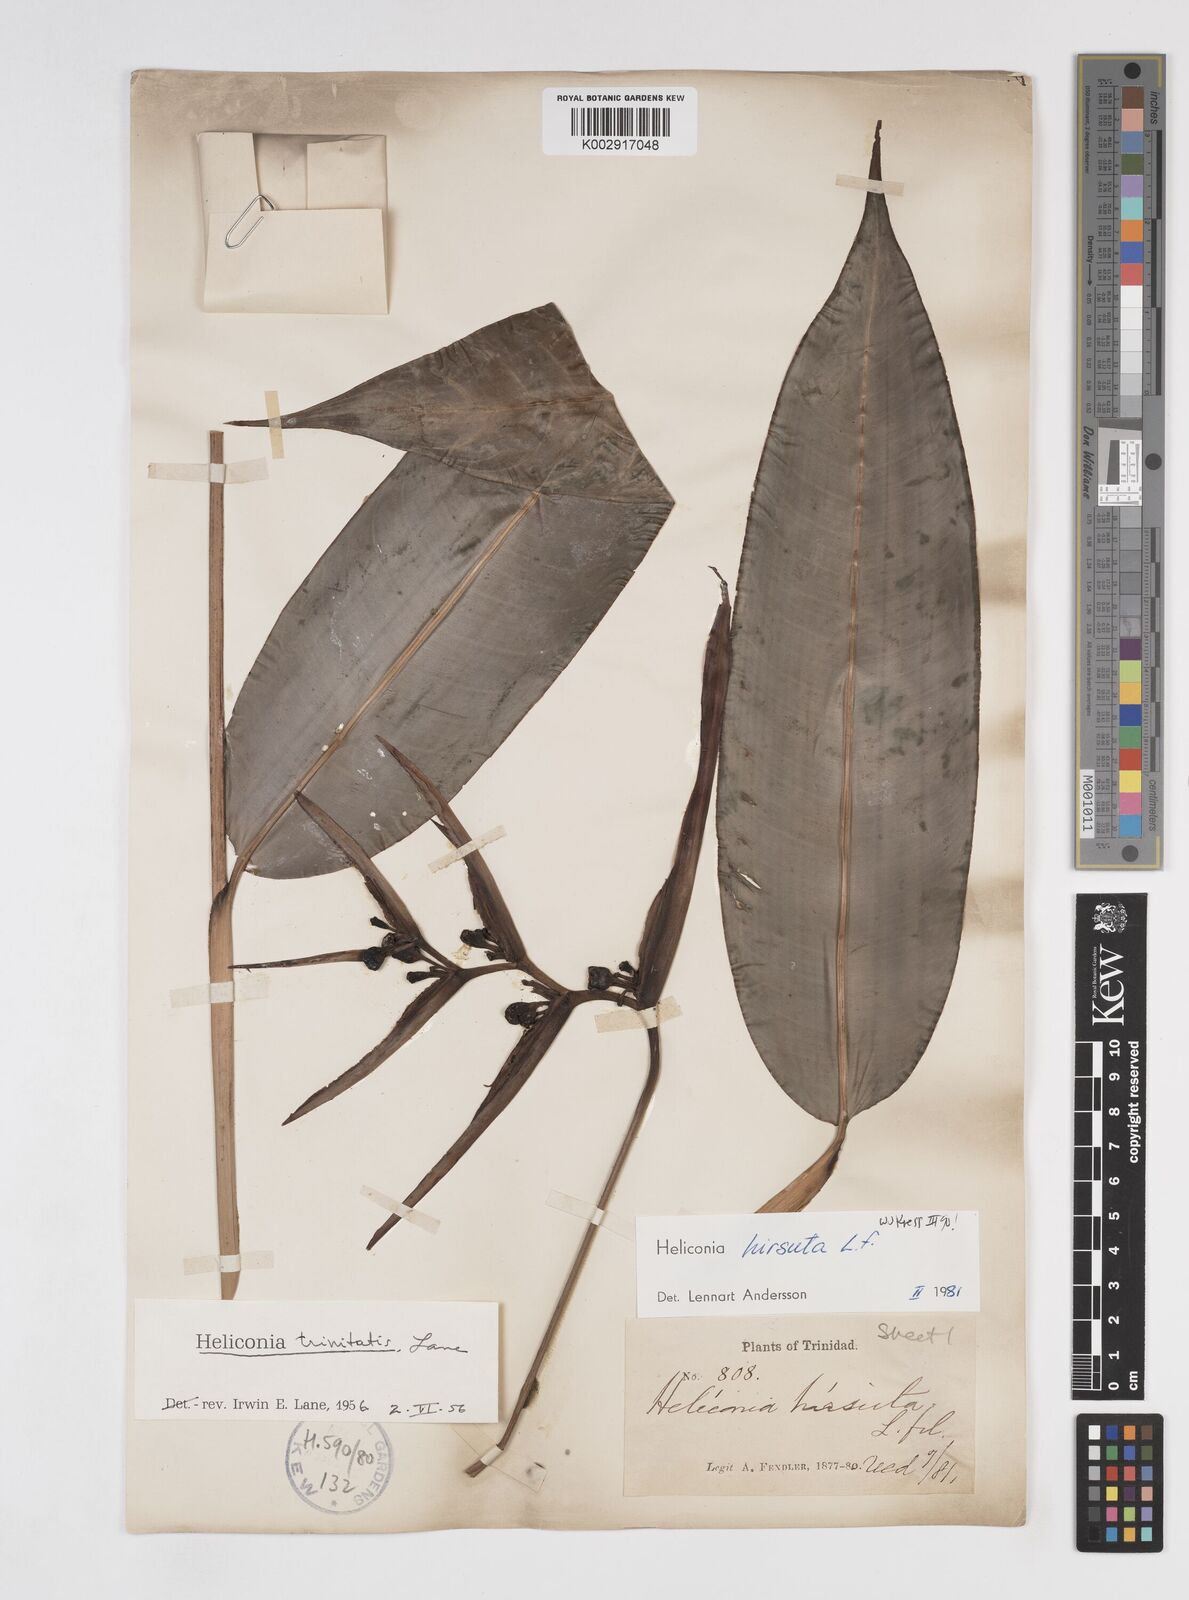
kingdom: Plantae
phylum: Tracheophyta
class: Liliopsida
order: Zingiberales
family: Heliconiaceae
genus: Heliconia
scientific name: Heliconia hirsuta
